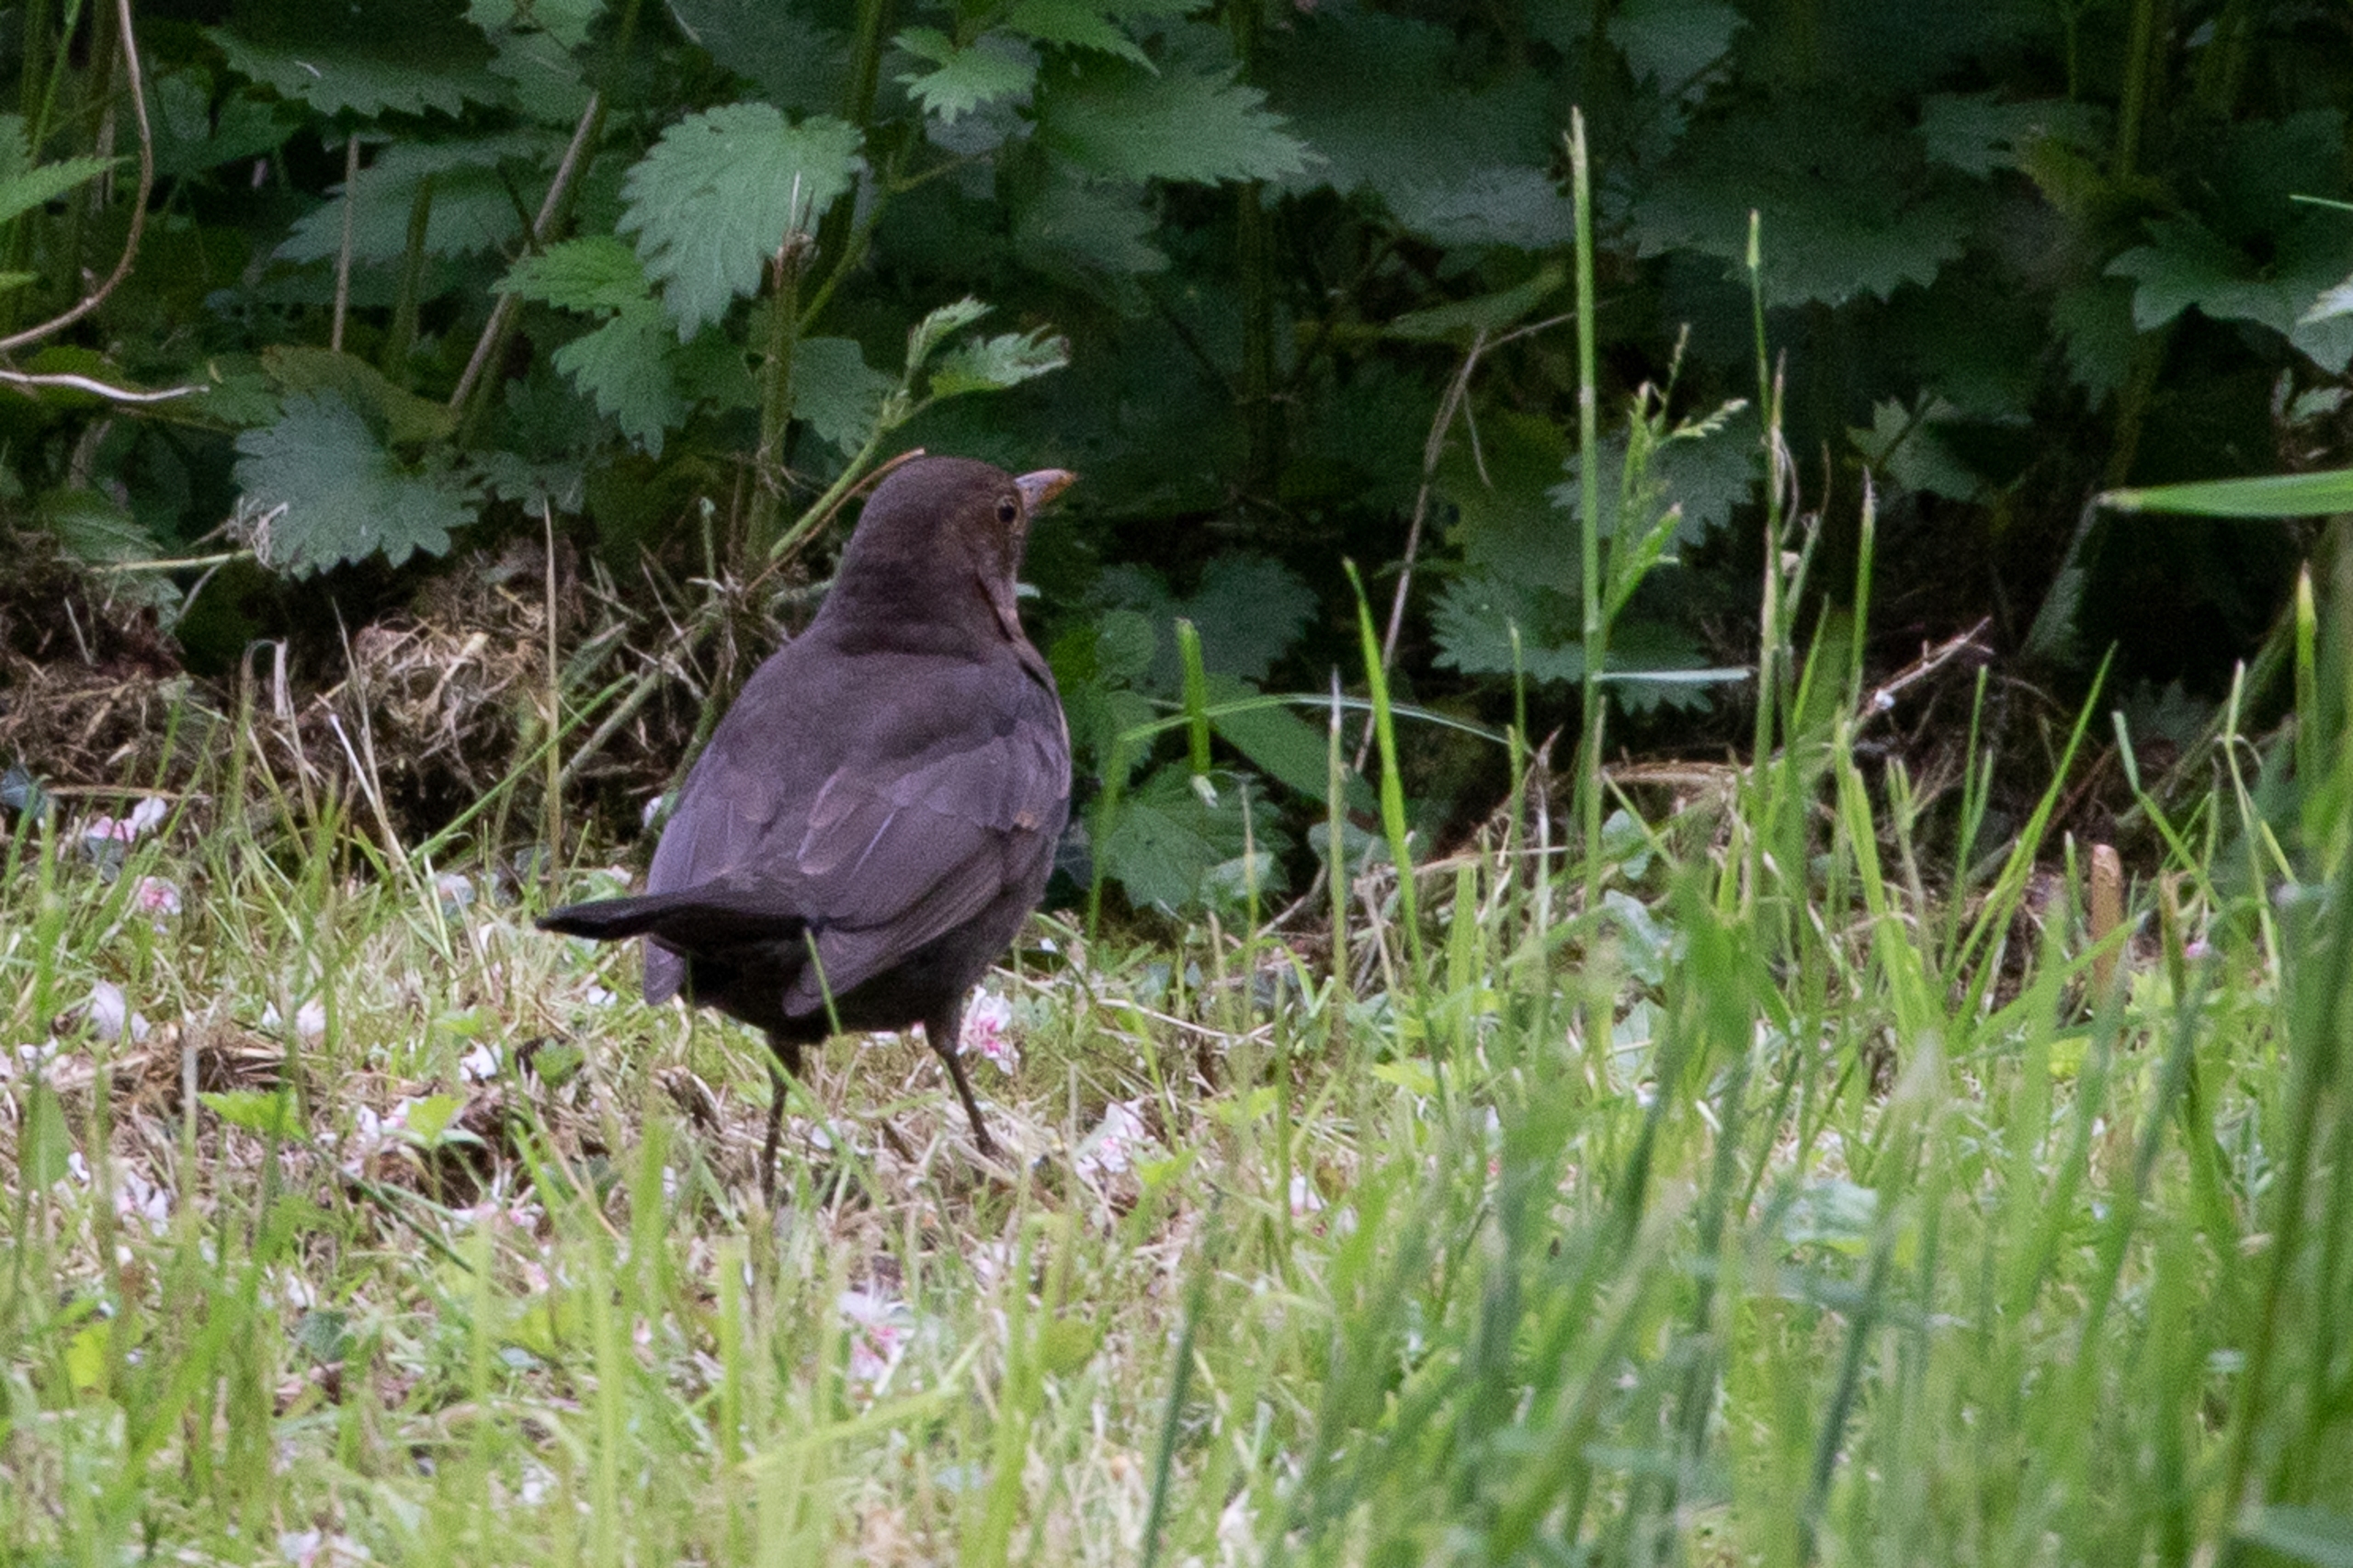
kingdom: Animalia
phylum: Chordata
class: Aves
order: Passeriformes
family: Turdidae
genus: Turdus
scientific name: Turdus merula
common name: Solsort
